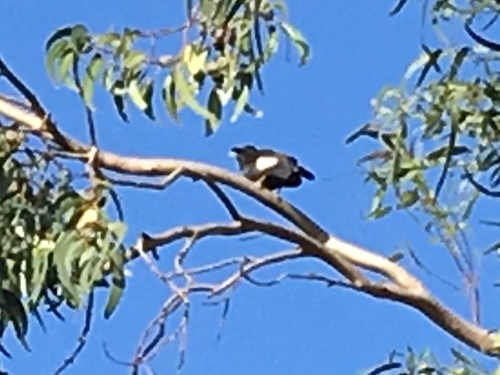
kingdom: Animalia
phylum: Chordata
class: Aves
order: Passeriformes
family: Sturnidae
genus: Acridotheres
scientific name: Acridotheres cristatellus
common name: Crested myna
